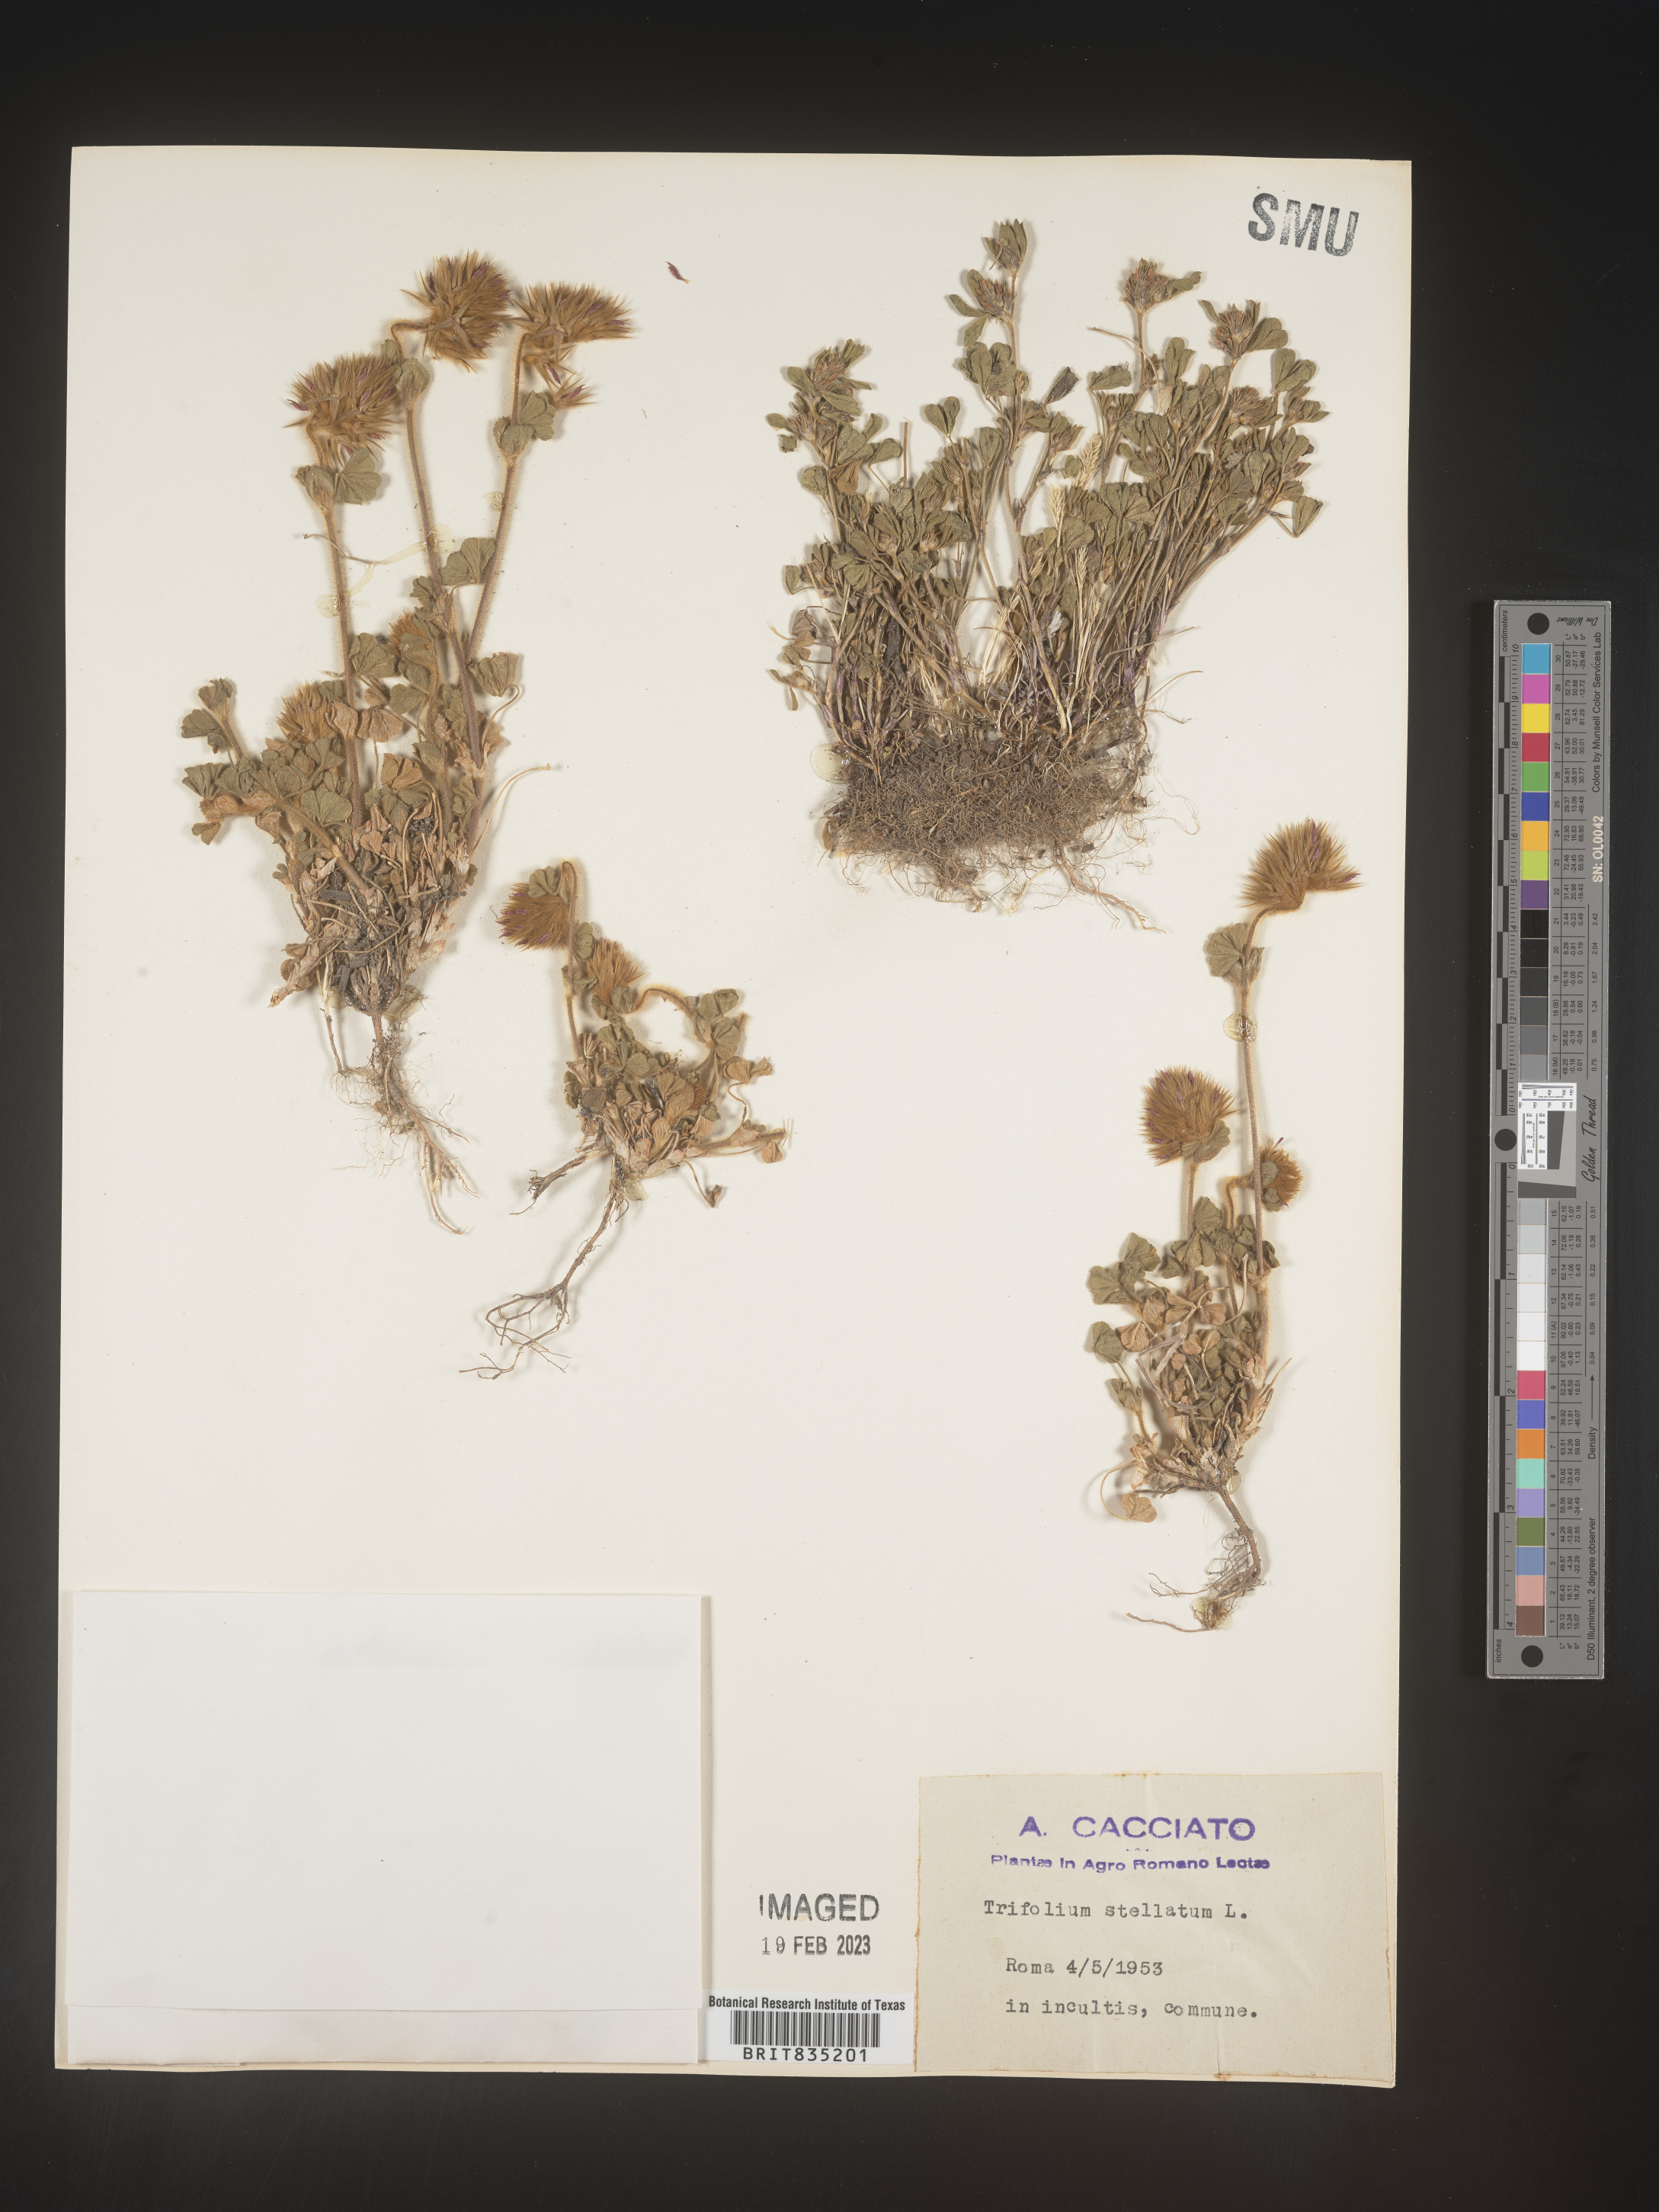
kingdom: Plantae
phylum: Tracheophyta
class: Magnoliopsida
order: Fabales
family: Fabaceae
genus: Trifolium
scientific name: Trifolium
